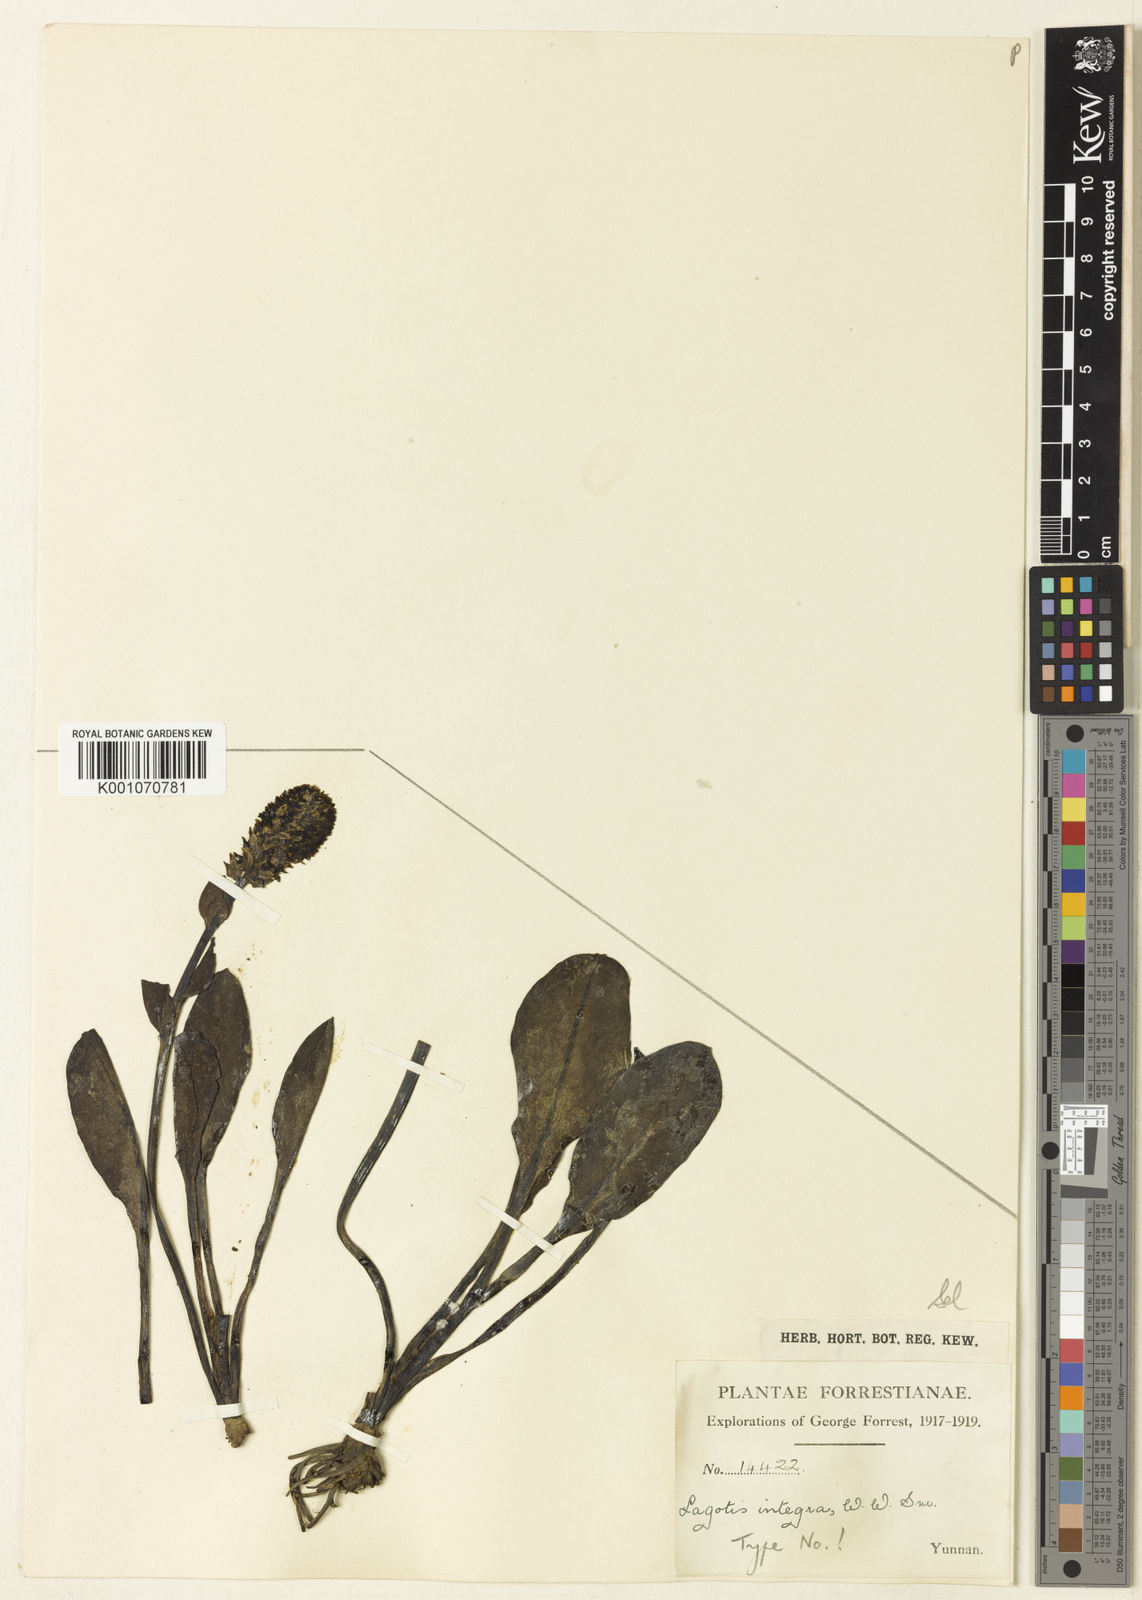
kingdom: Plantae
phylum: Tracheophyta
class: Magnoliopsida
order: Lamiales
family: Plantaginaceae
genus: Lagotis
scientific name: Lagotis integra
